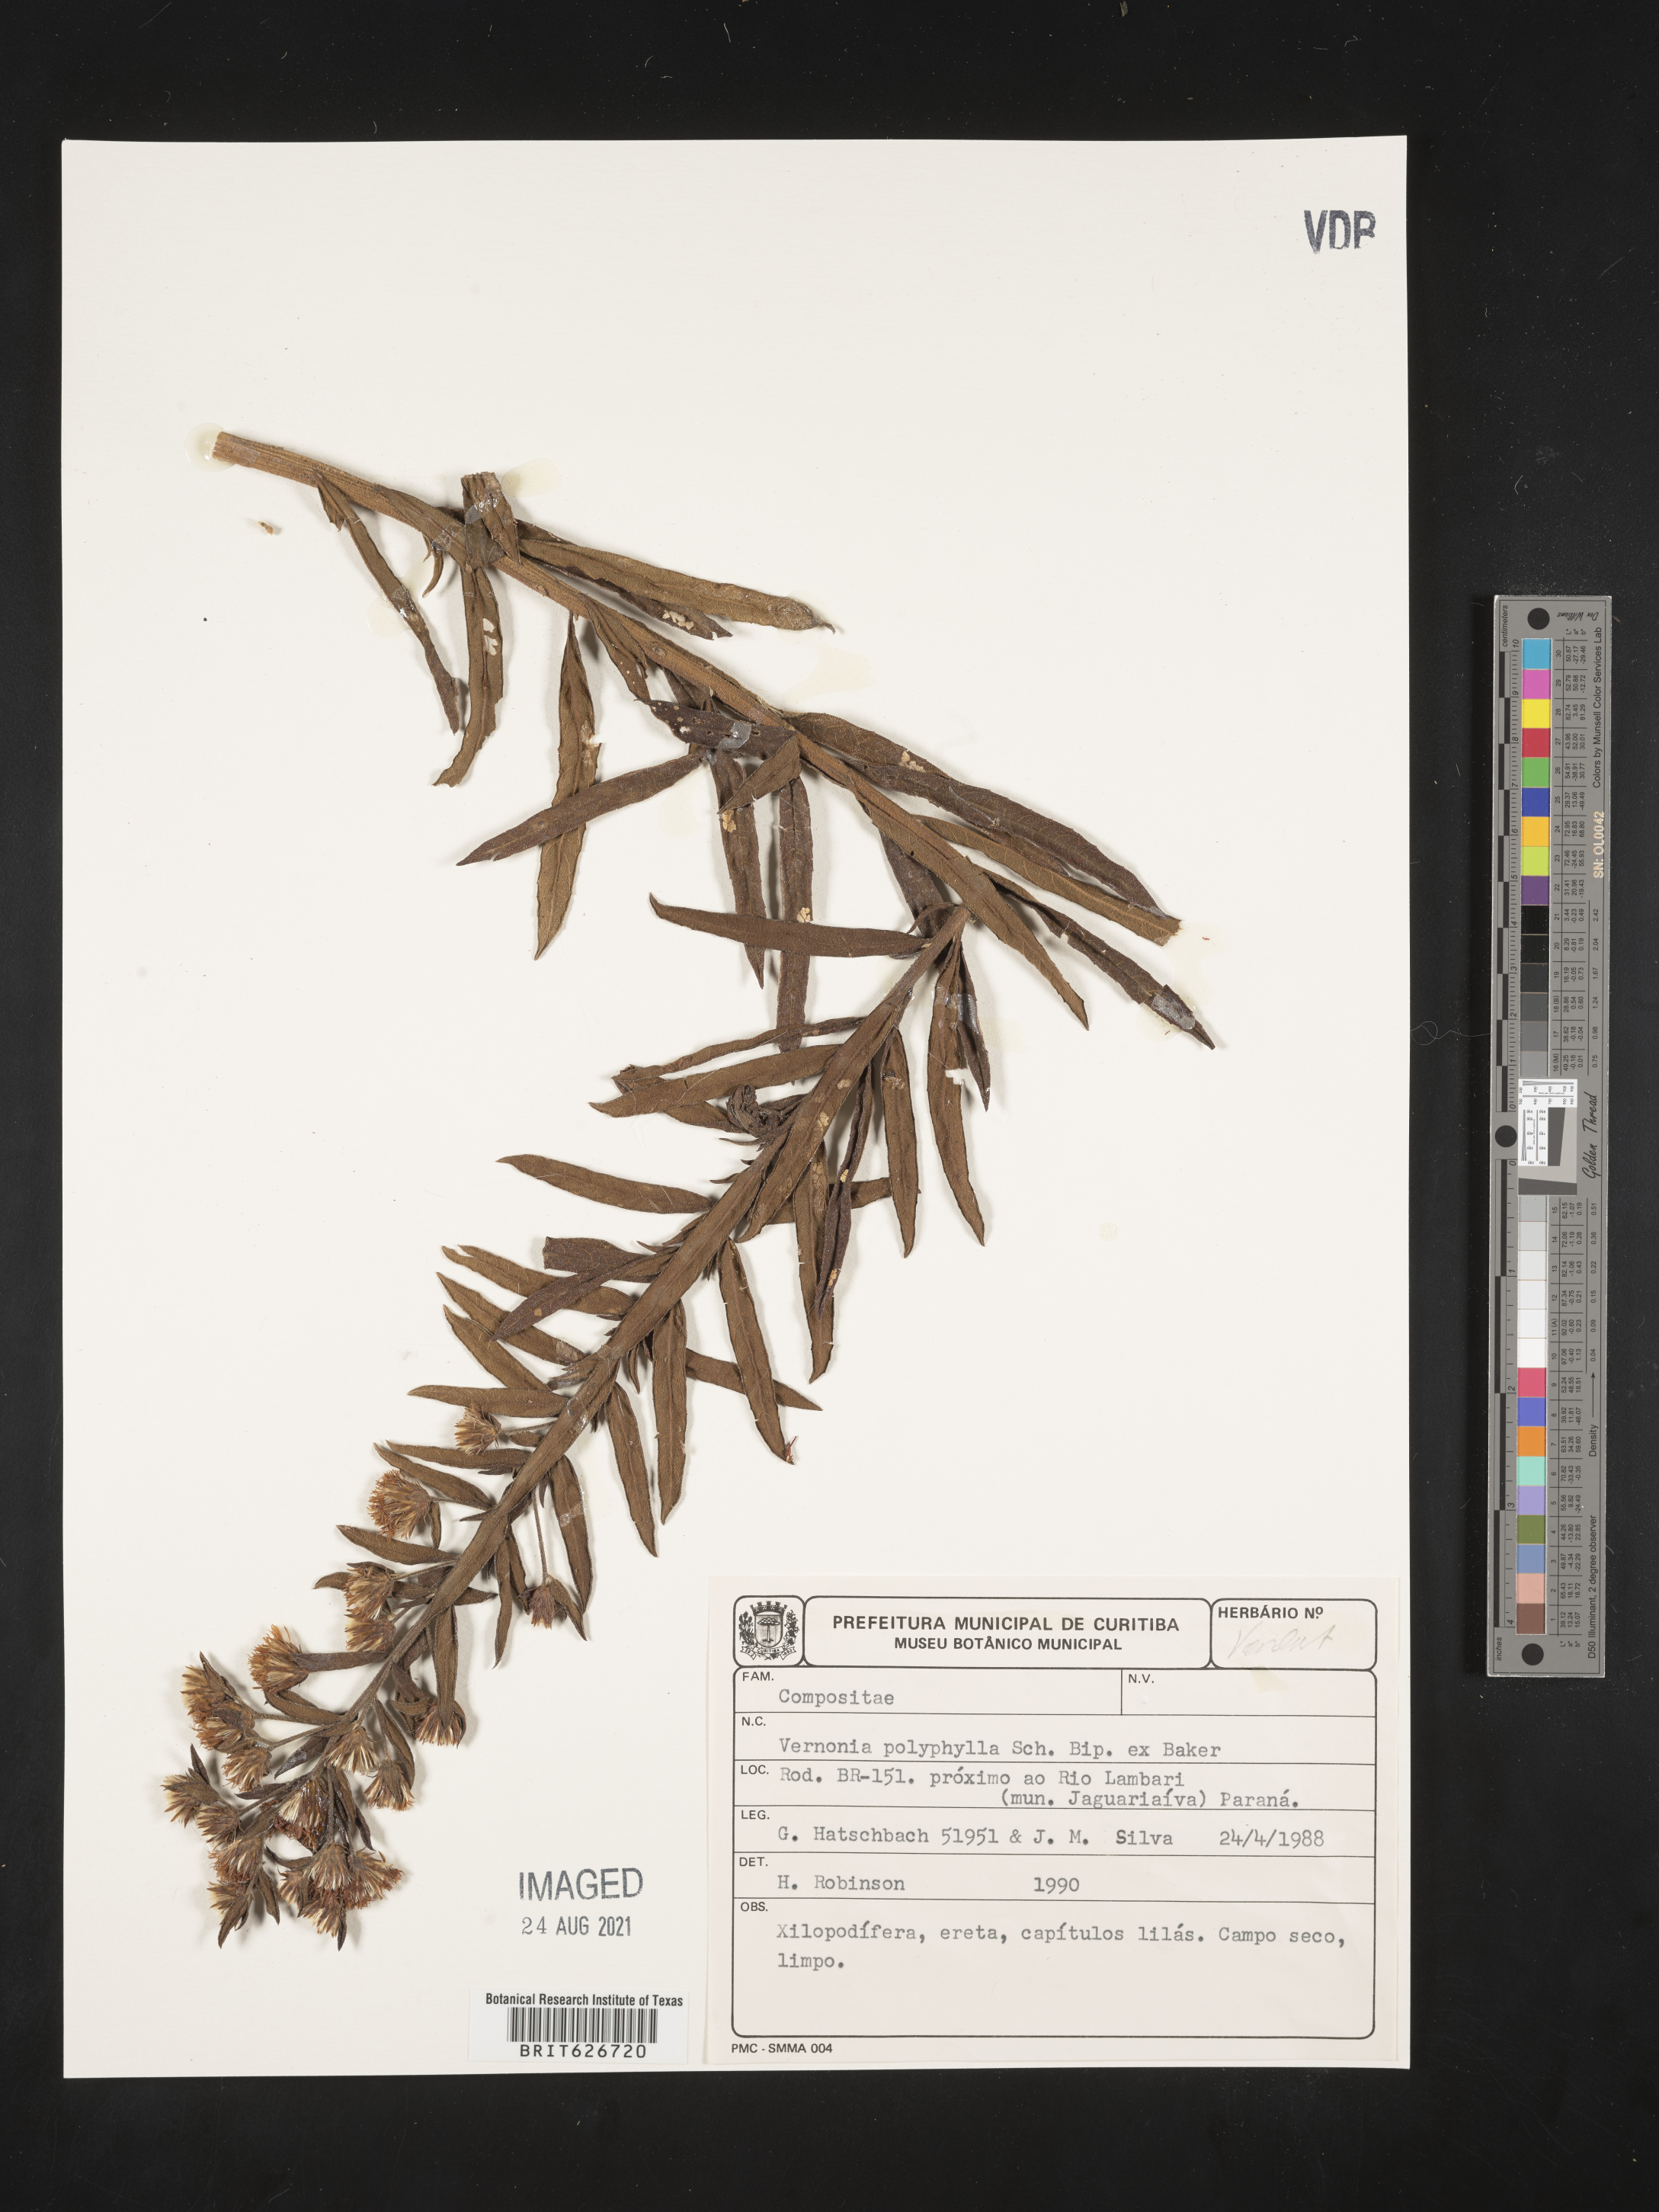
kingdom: Plantae
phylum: Tracheophyta
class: Magnoliopsida
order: Asterales
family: Asteraceae
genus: Lessingianthus
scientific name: Lessingianthus polyphyllus
